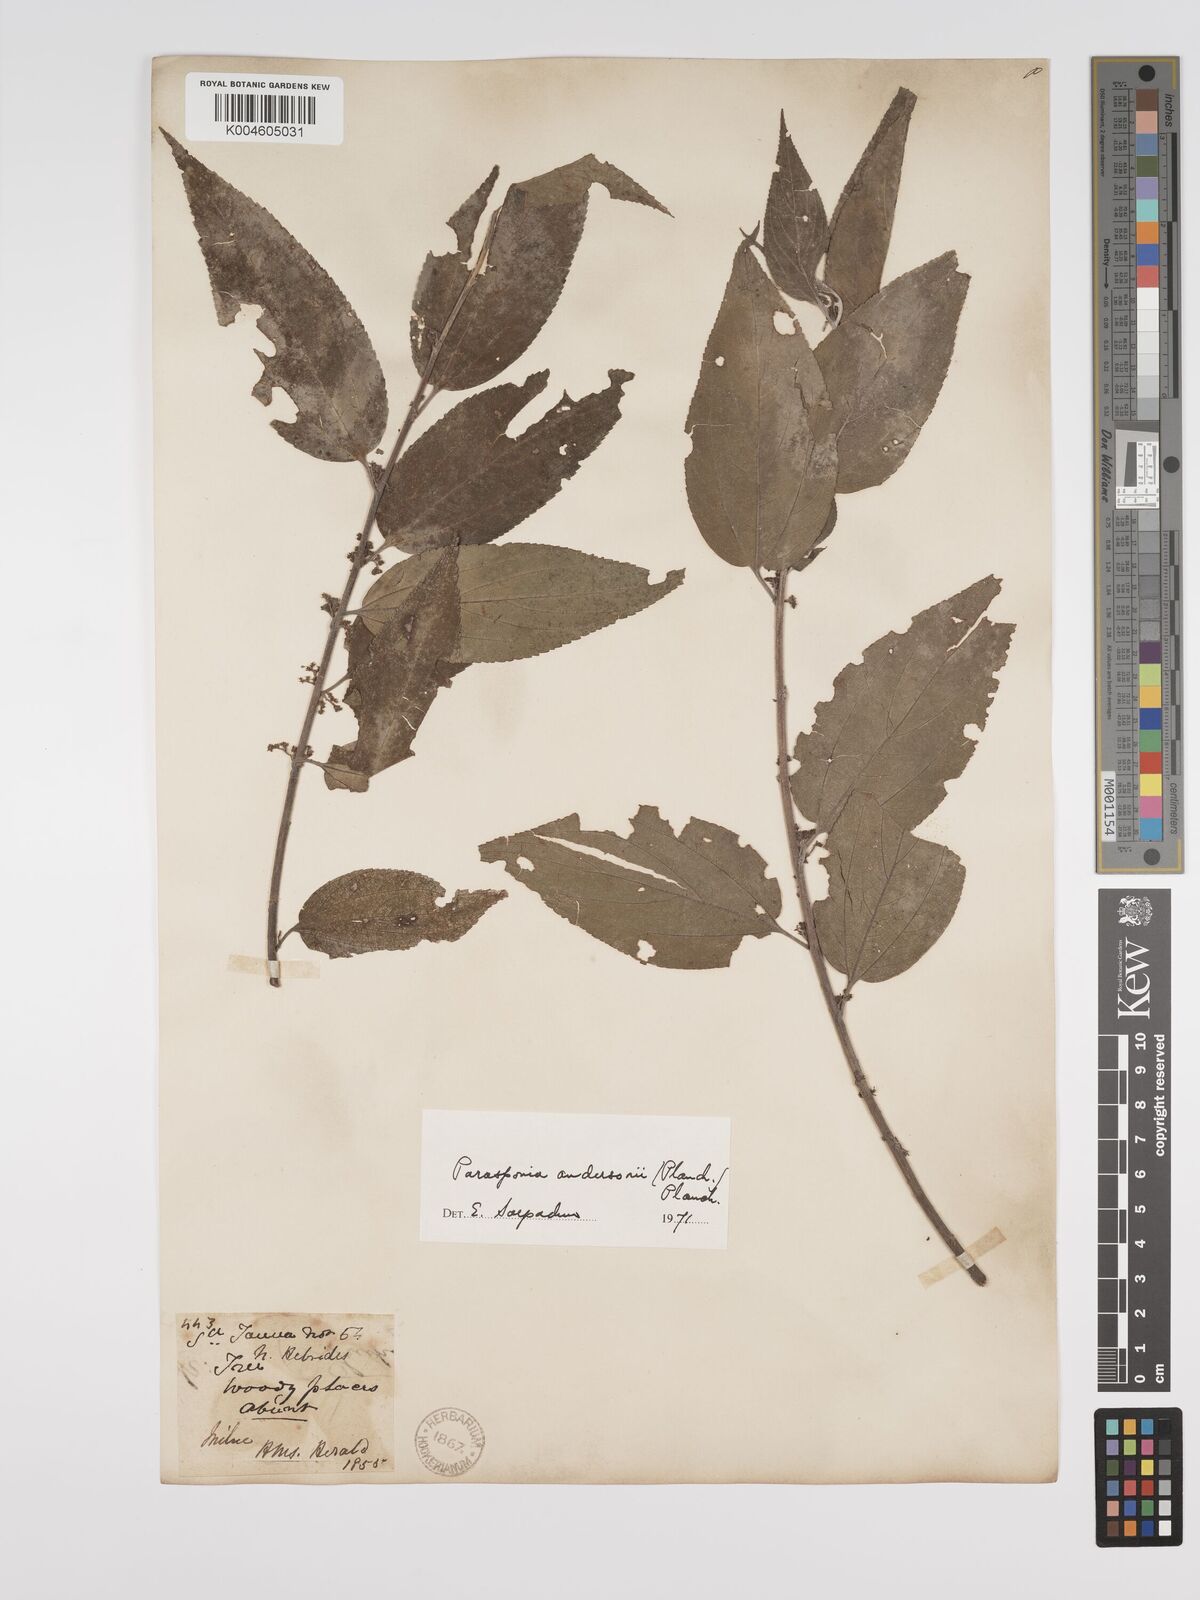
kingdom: Plantae
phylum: Tracheophyta
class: Magnoliopsida
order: Rosales
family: Cannabaceae
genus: Trema
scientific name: Trema andersonii
